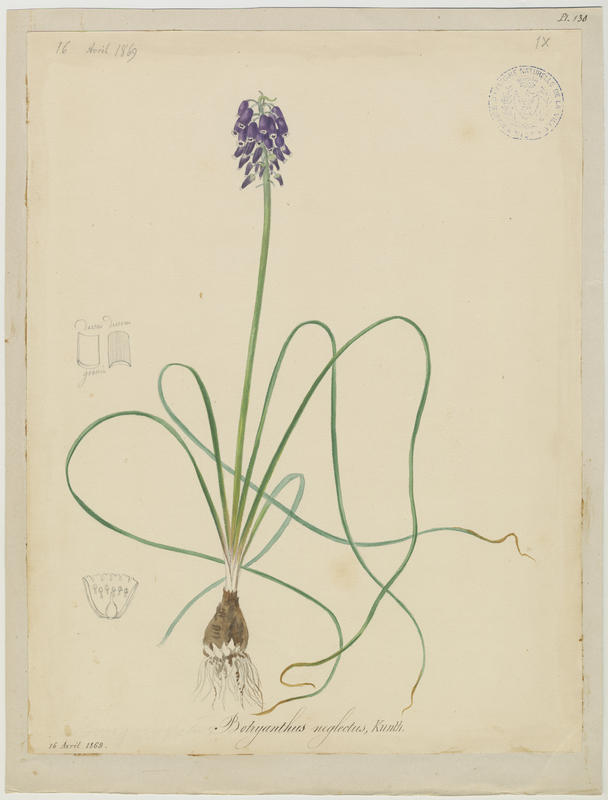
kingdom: Plantae
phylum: Tracheophyta
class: Liliopsida
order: Asparagales
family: Asparagaceae
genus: Muscari
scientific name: Muscari neglectum
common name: Grape-hyacinth
